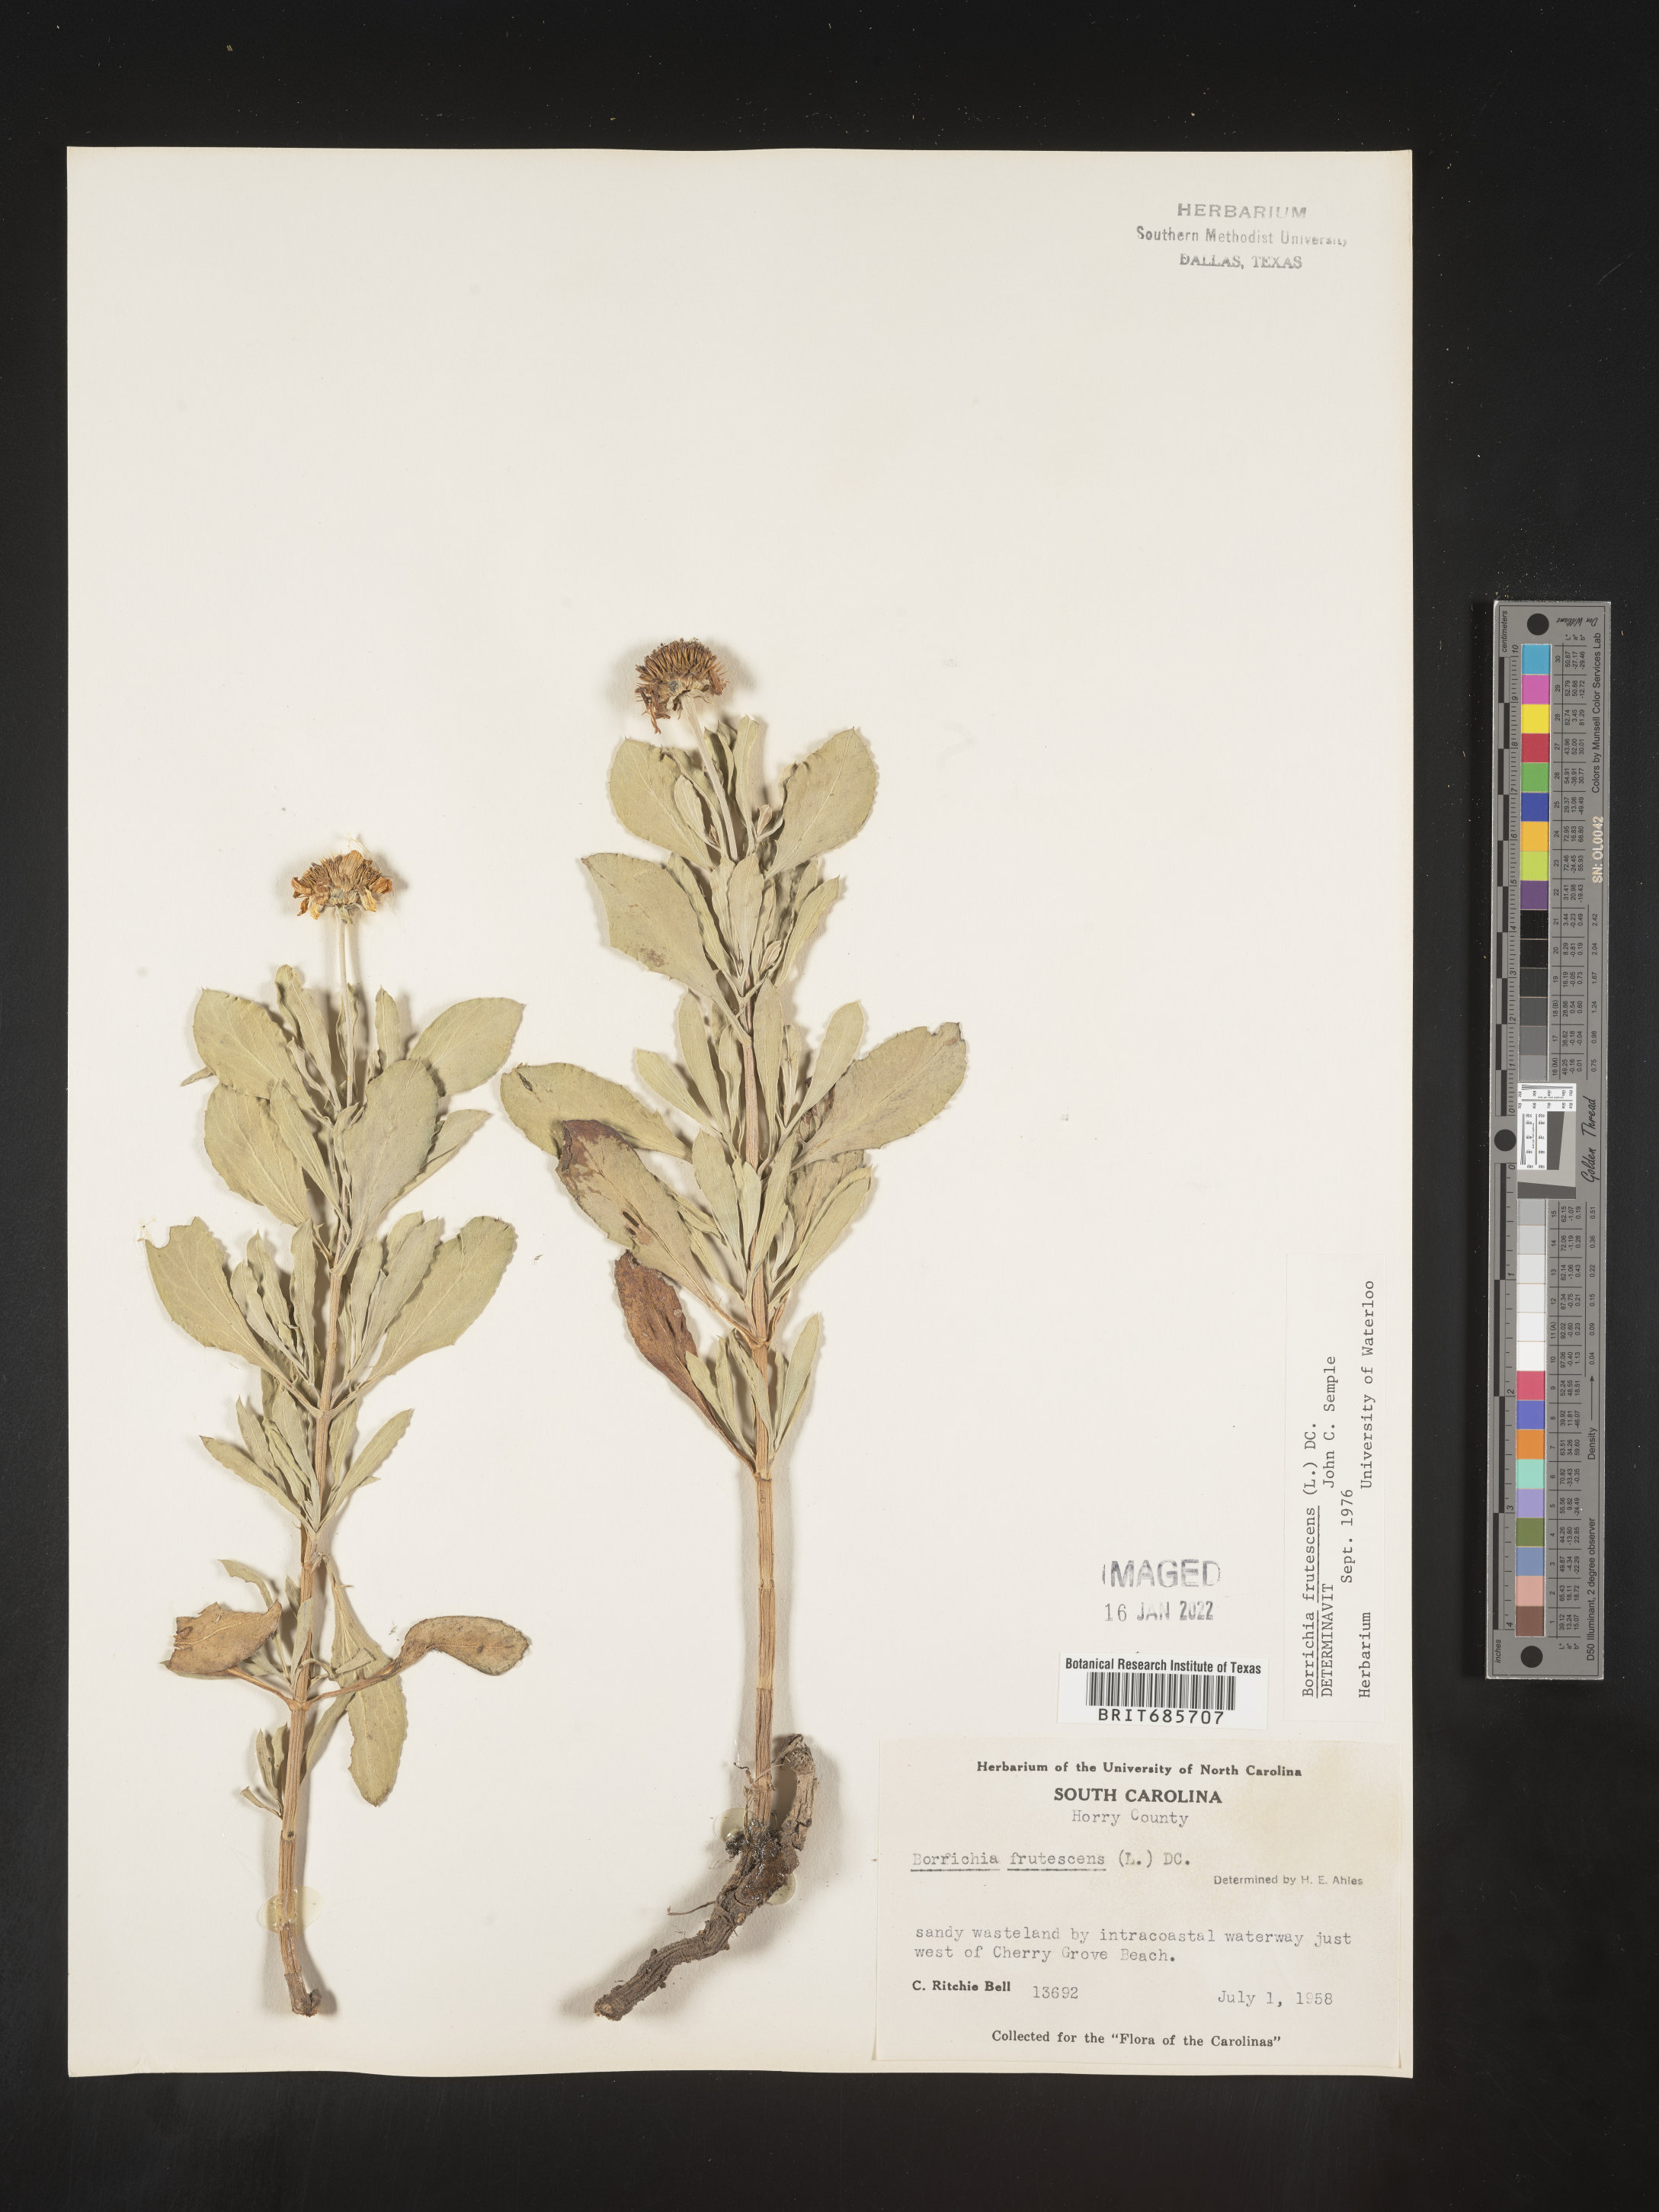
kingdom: Plantae
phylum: Tracheophyta
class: Magnoliopsida
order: Asterales
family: Asteraceae
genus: Borrichia
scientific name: Borrichia frutescens
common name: Sea oxeye
